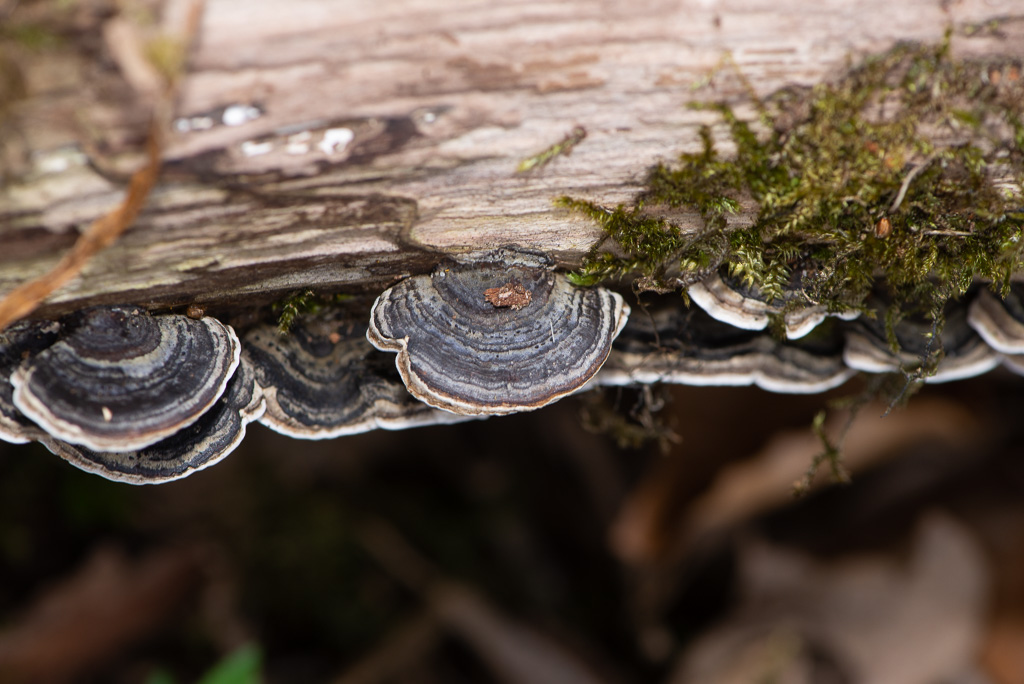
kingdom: Fungi
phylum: Basidiomycota
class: Agaricomycetes
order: Polyporales
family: Polyporaceae
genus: Trametes
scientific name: Trametes versicolor
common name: broget læderporesvamp
